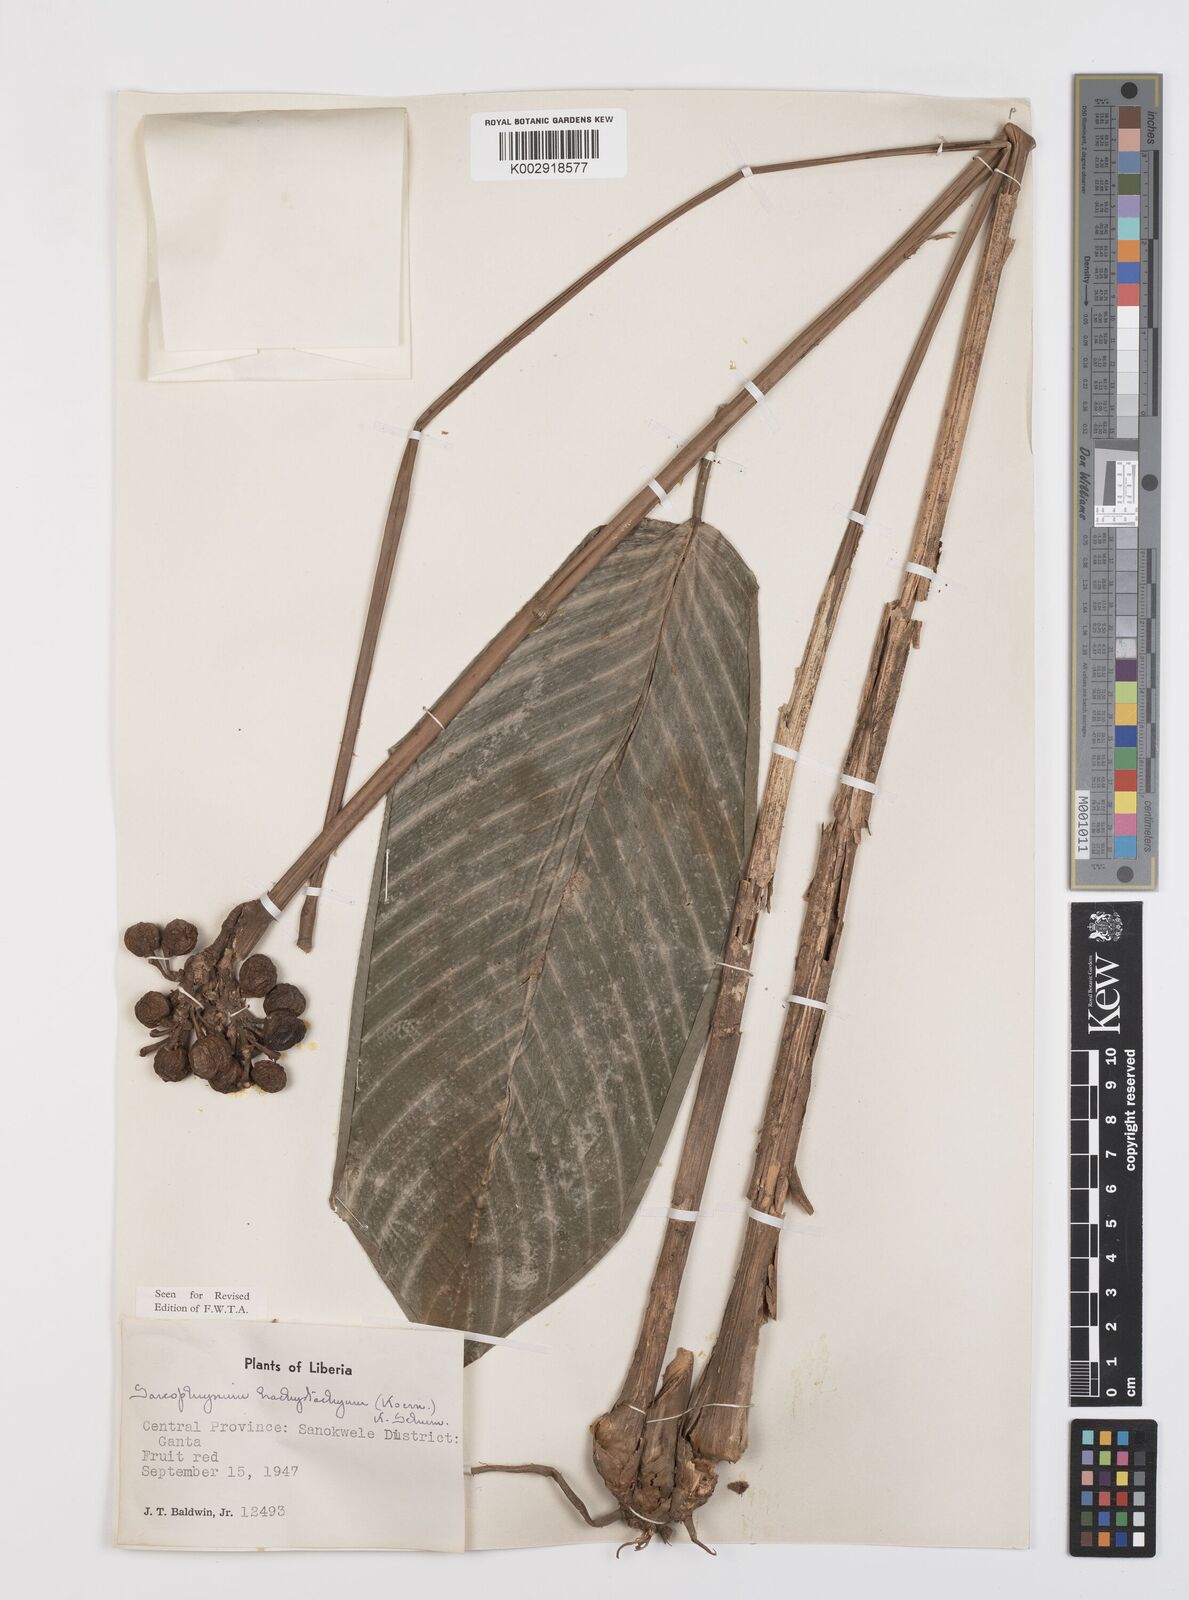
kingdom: Plantae
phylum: Tracheophyta
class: Liliopsida
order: Zingiberales
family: Marantaceae
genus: Sarcophrynium
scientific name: Sarcophrynium brachystachyum
